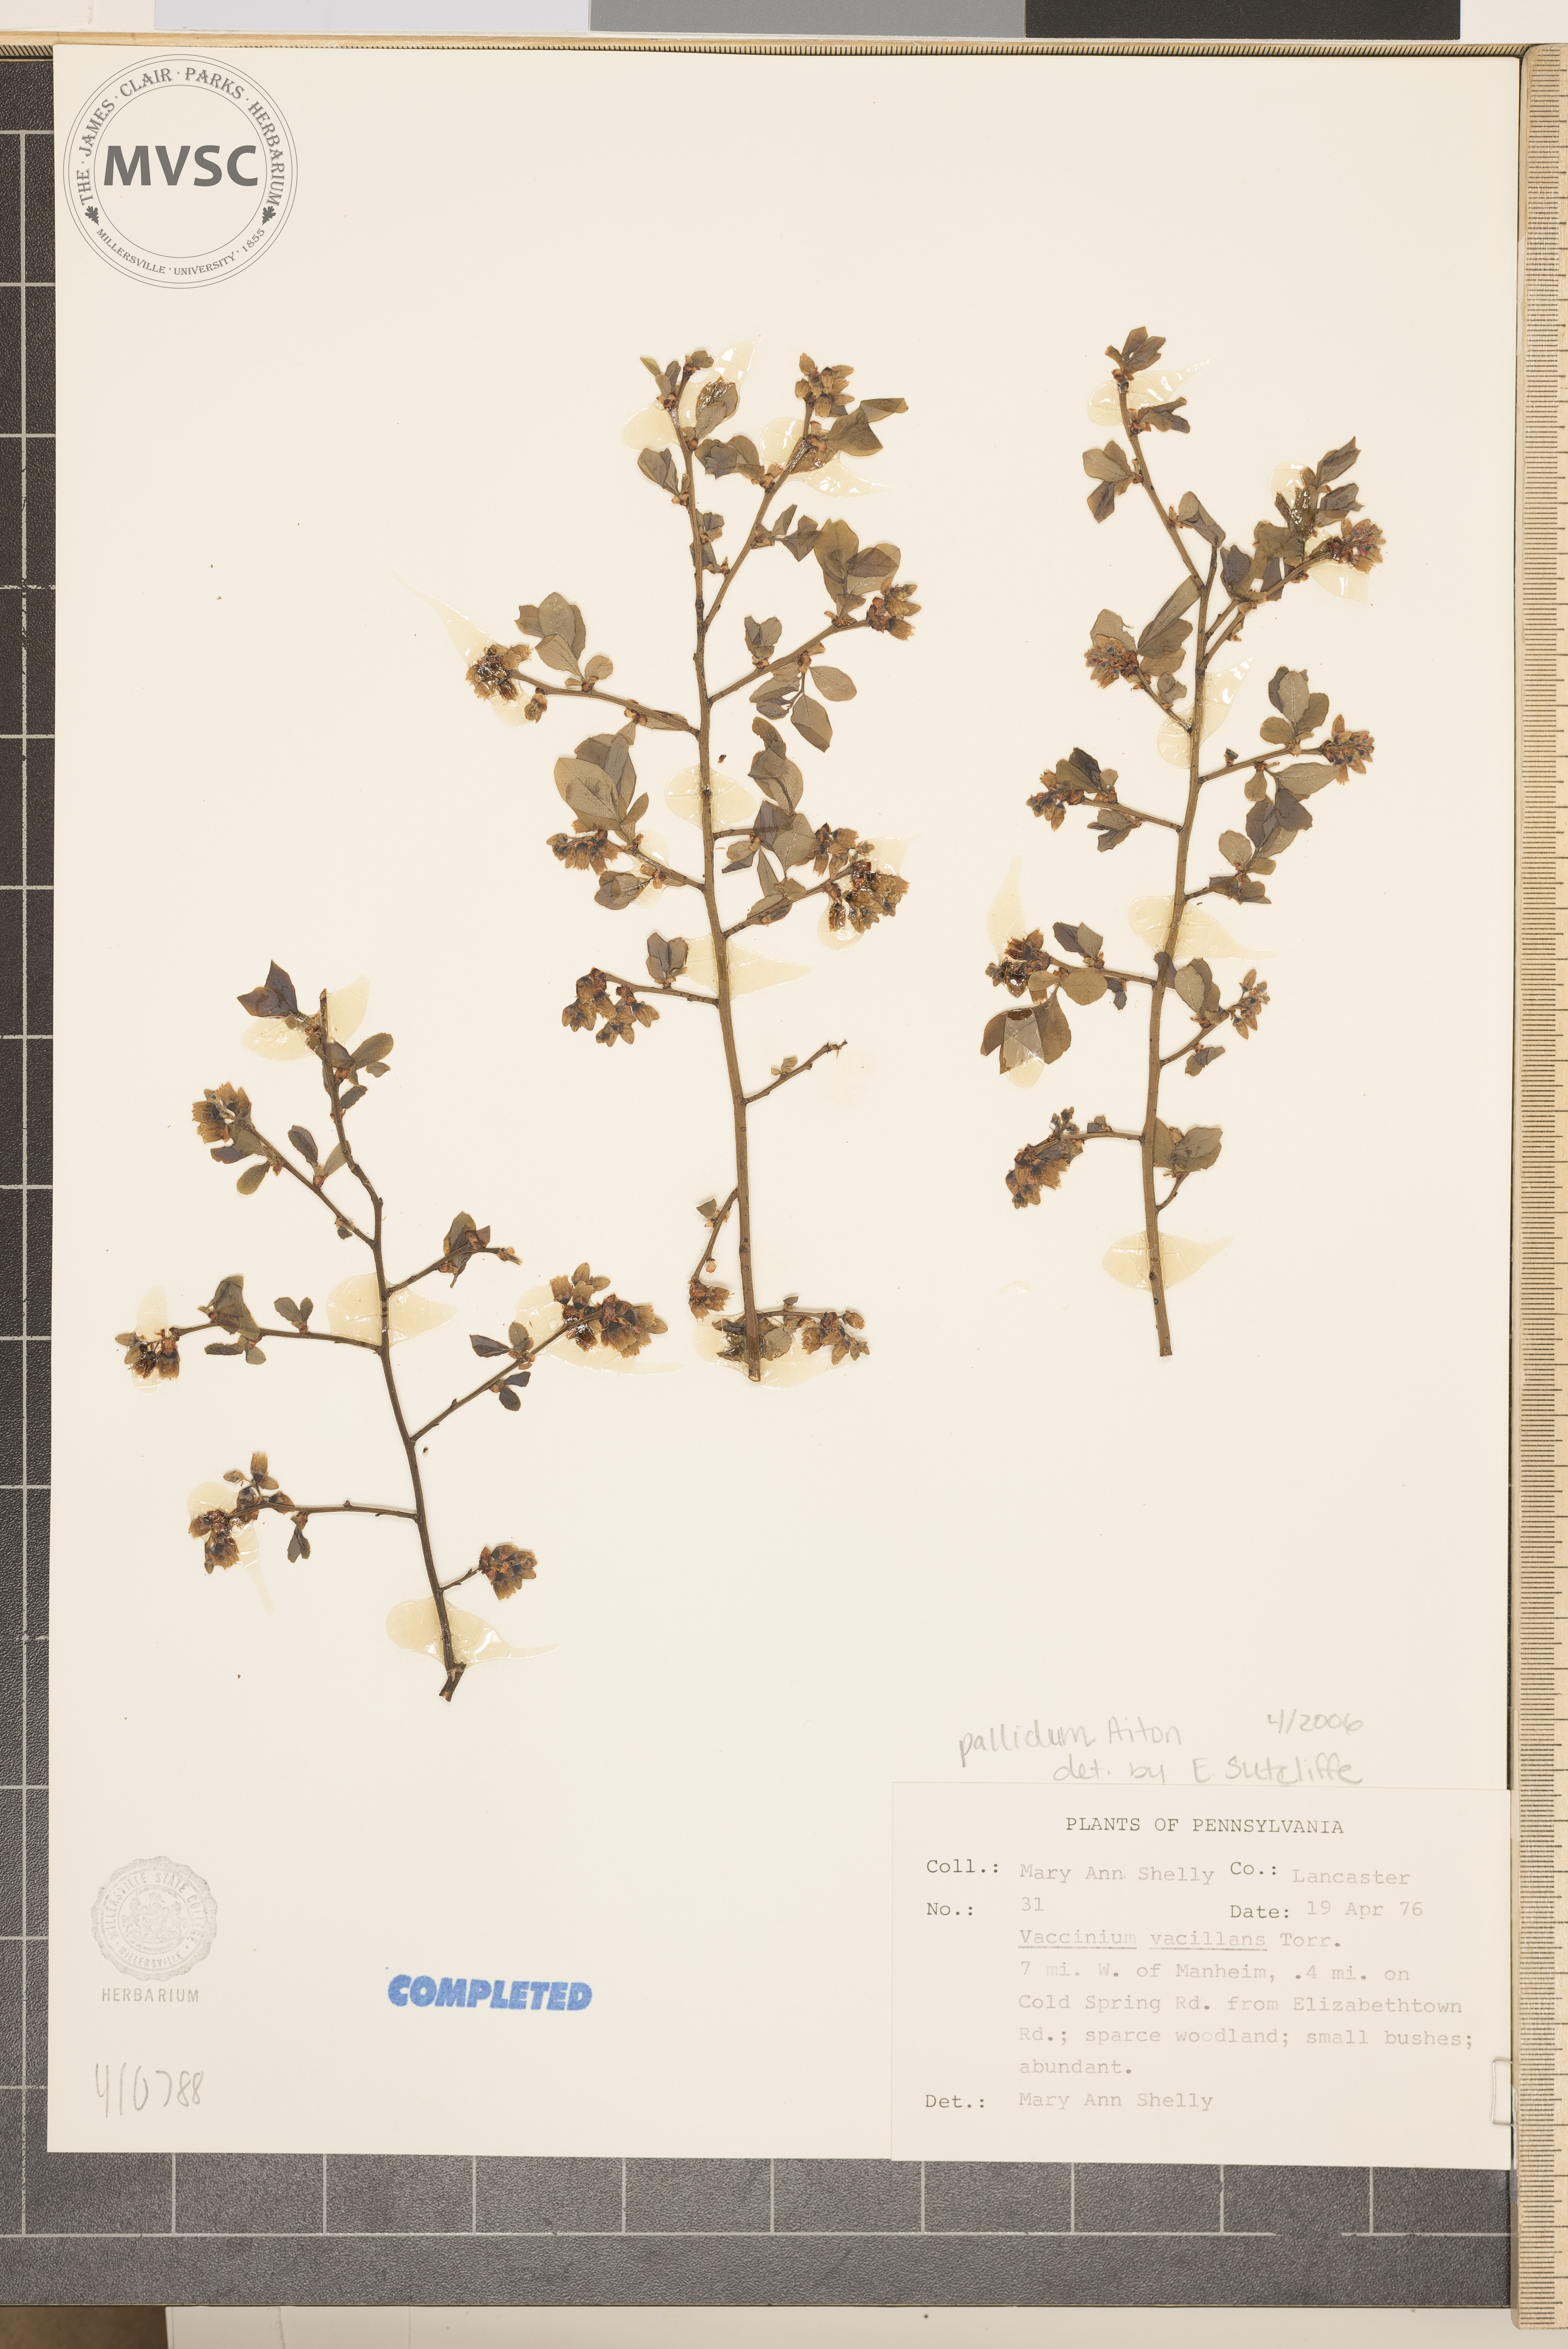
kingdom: Plantae
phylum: Tracheophyta
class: Magnoliopsida
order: Ericales
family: Ericaceae
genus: Vaccinium
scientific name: Vaccinium pallidum
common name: Blue ridge blueberry
